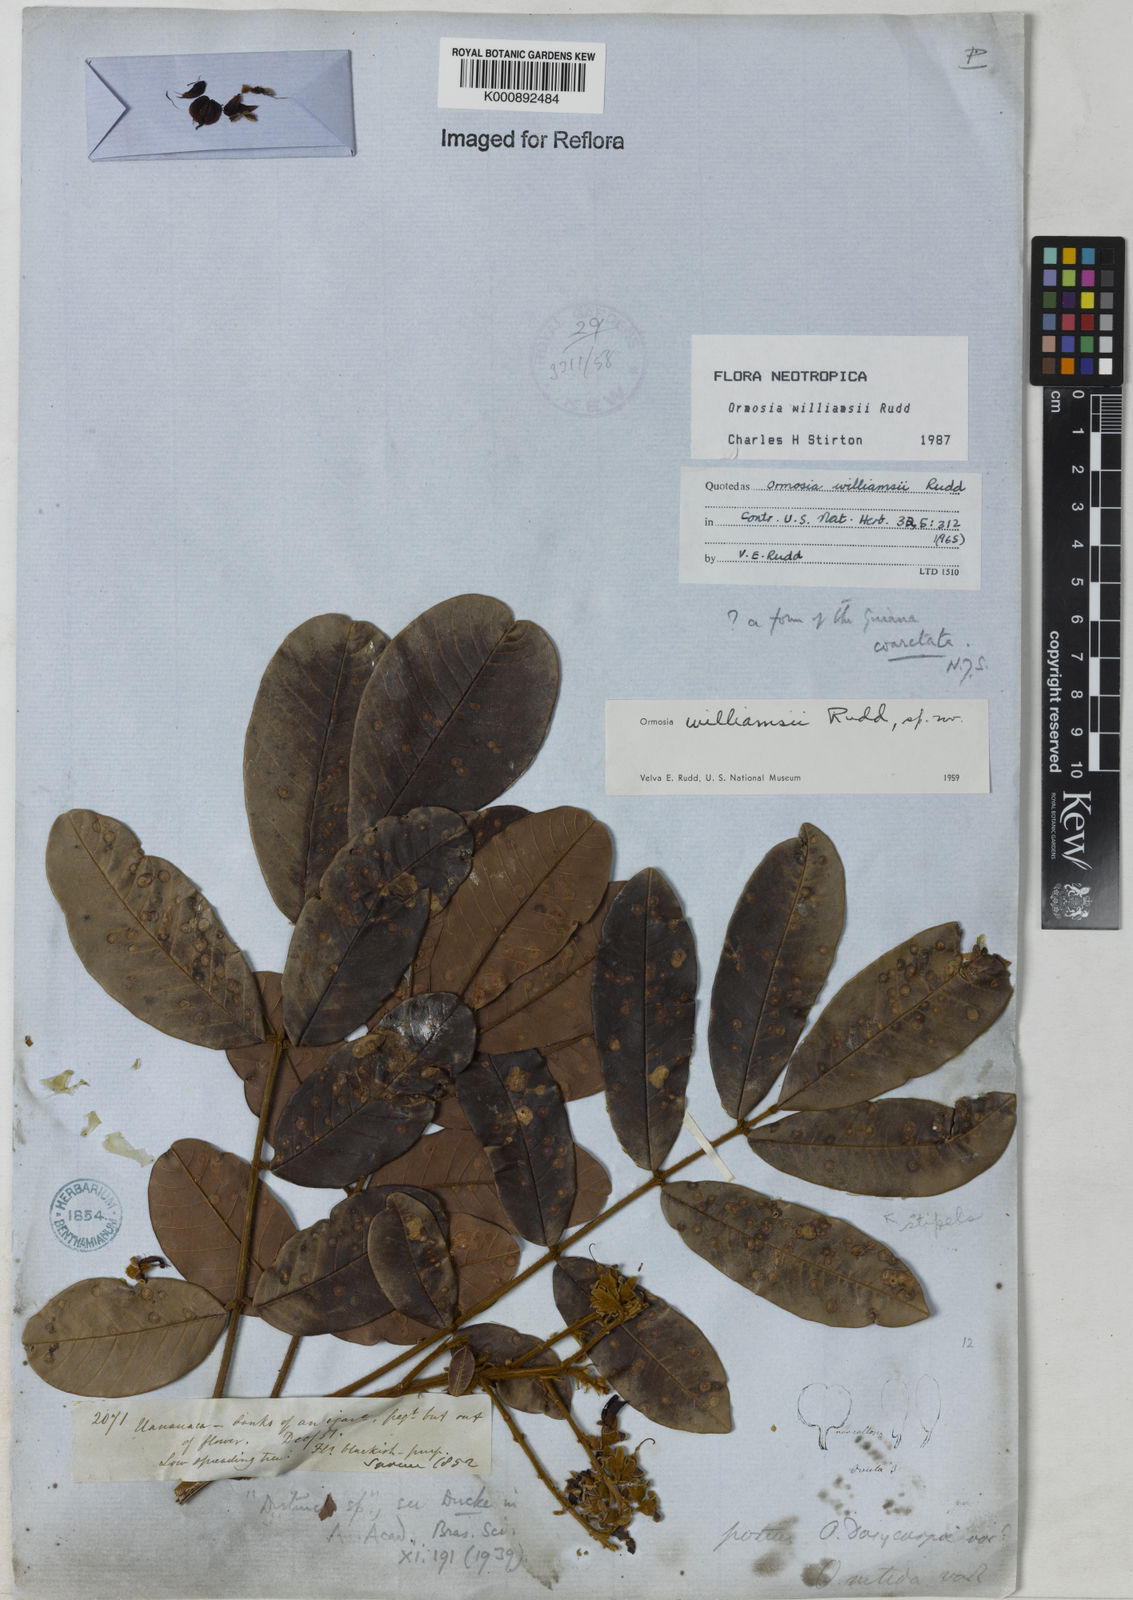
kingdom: Plantae
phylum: Tracheophyta
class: Magnoliopsida
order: Fabales
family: Fabaceae
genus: Ormosia
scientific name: Ormosia williamsii
